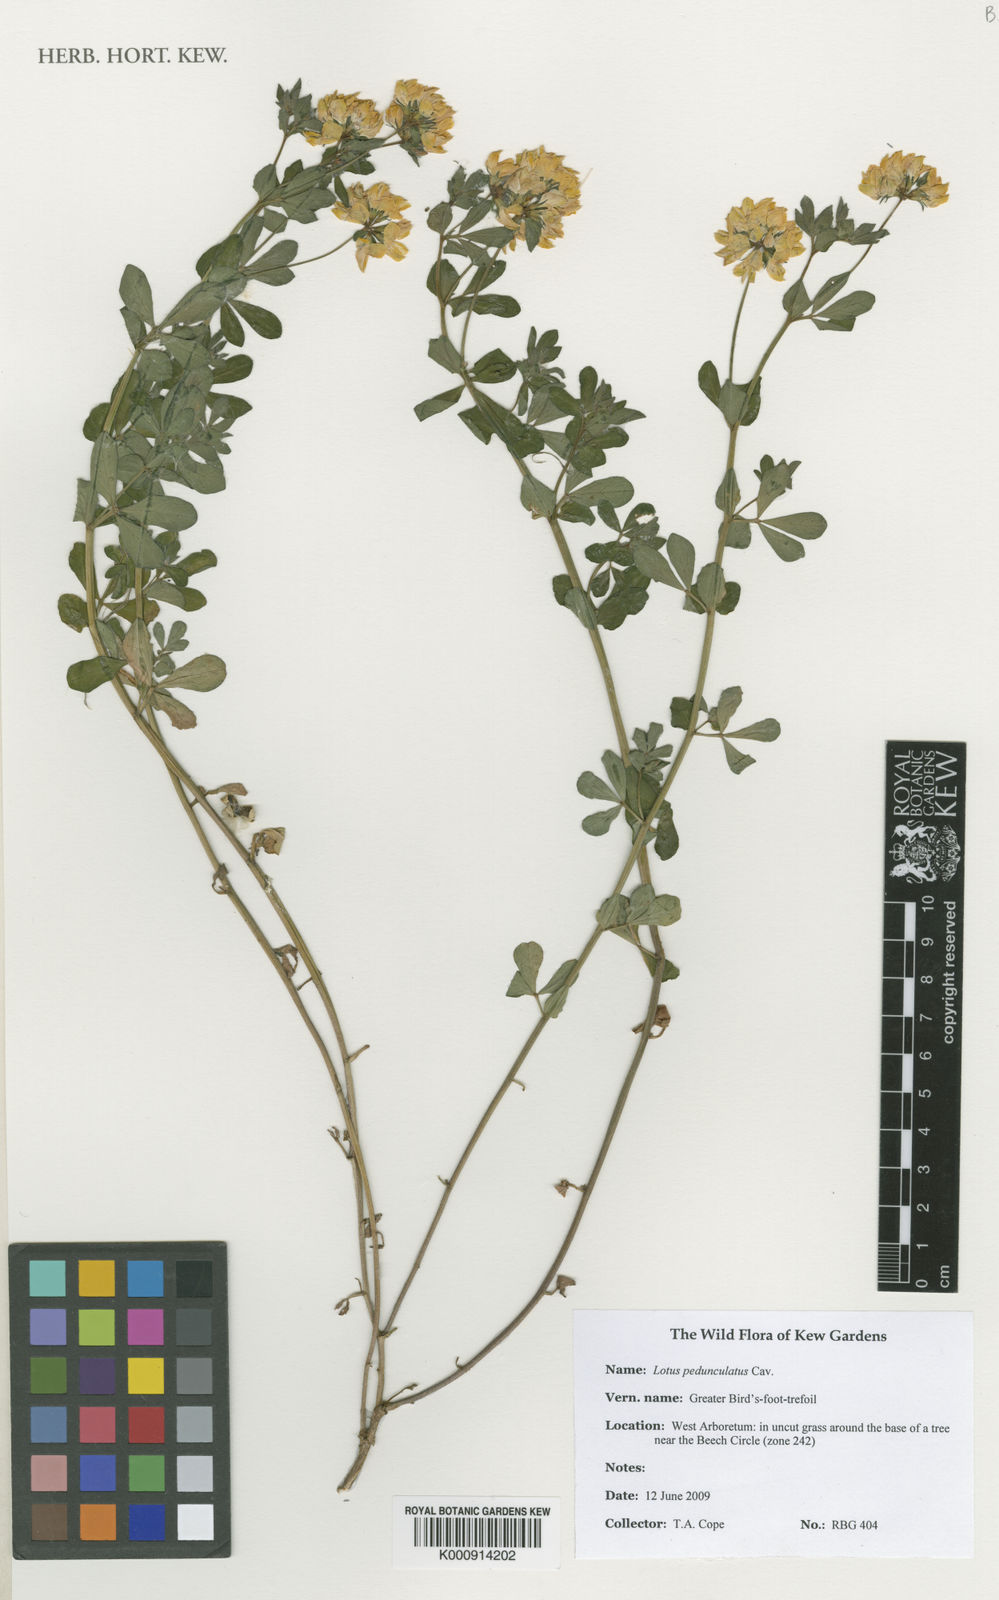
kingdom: Plantae
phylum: Tracheophyta
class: Magnoliopsida
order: Fabales
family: Fabaceae
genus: Lotus
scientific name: Lotus pedunculatus
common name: Greater birdsfoot-trefoil
